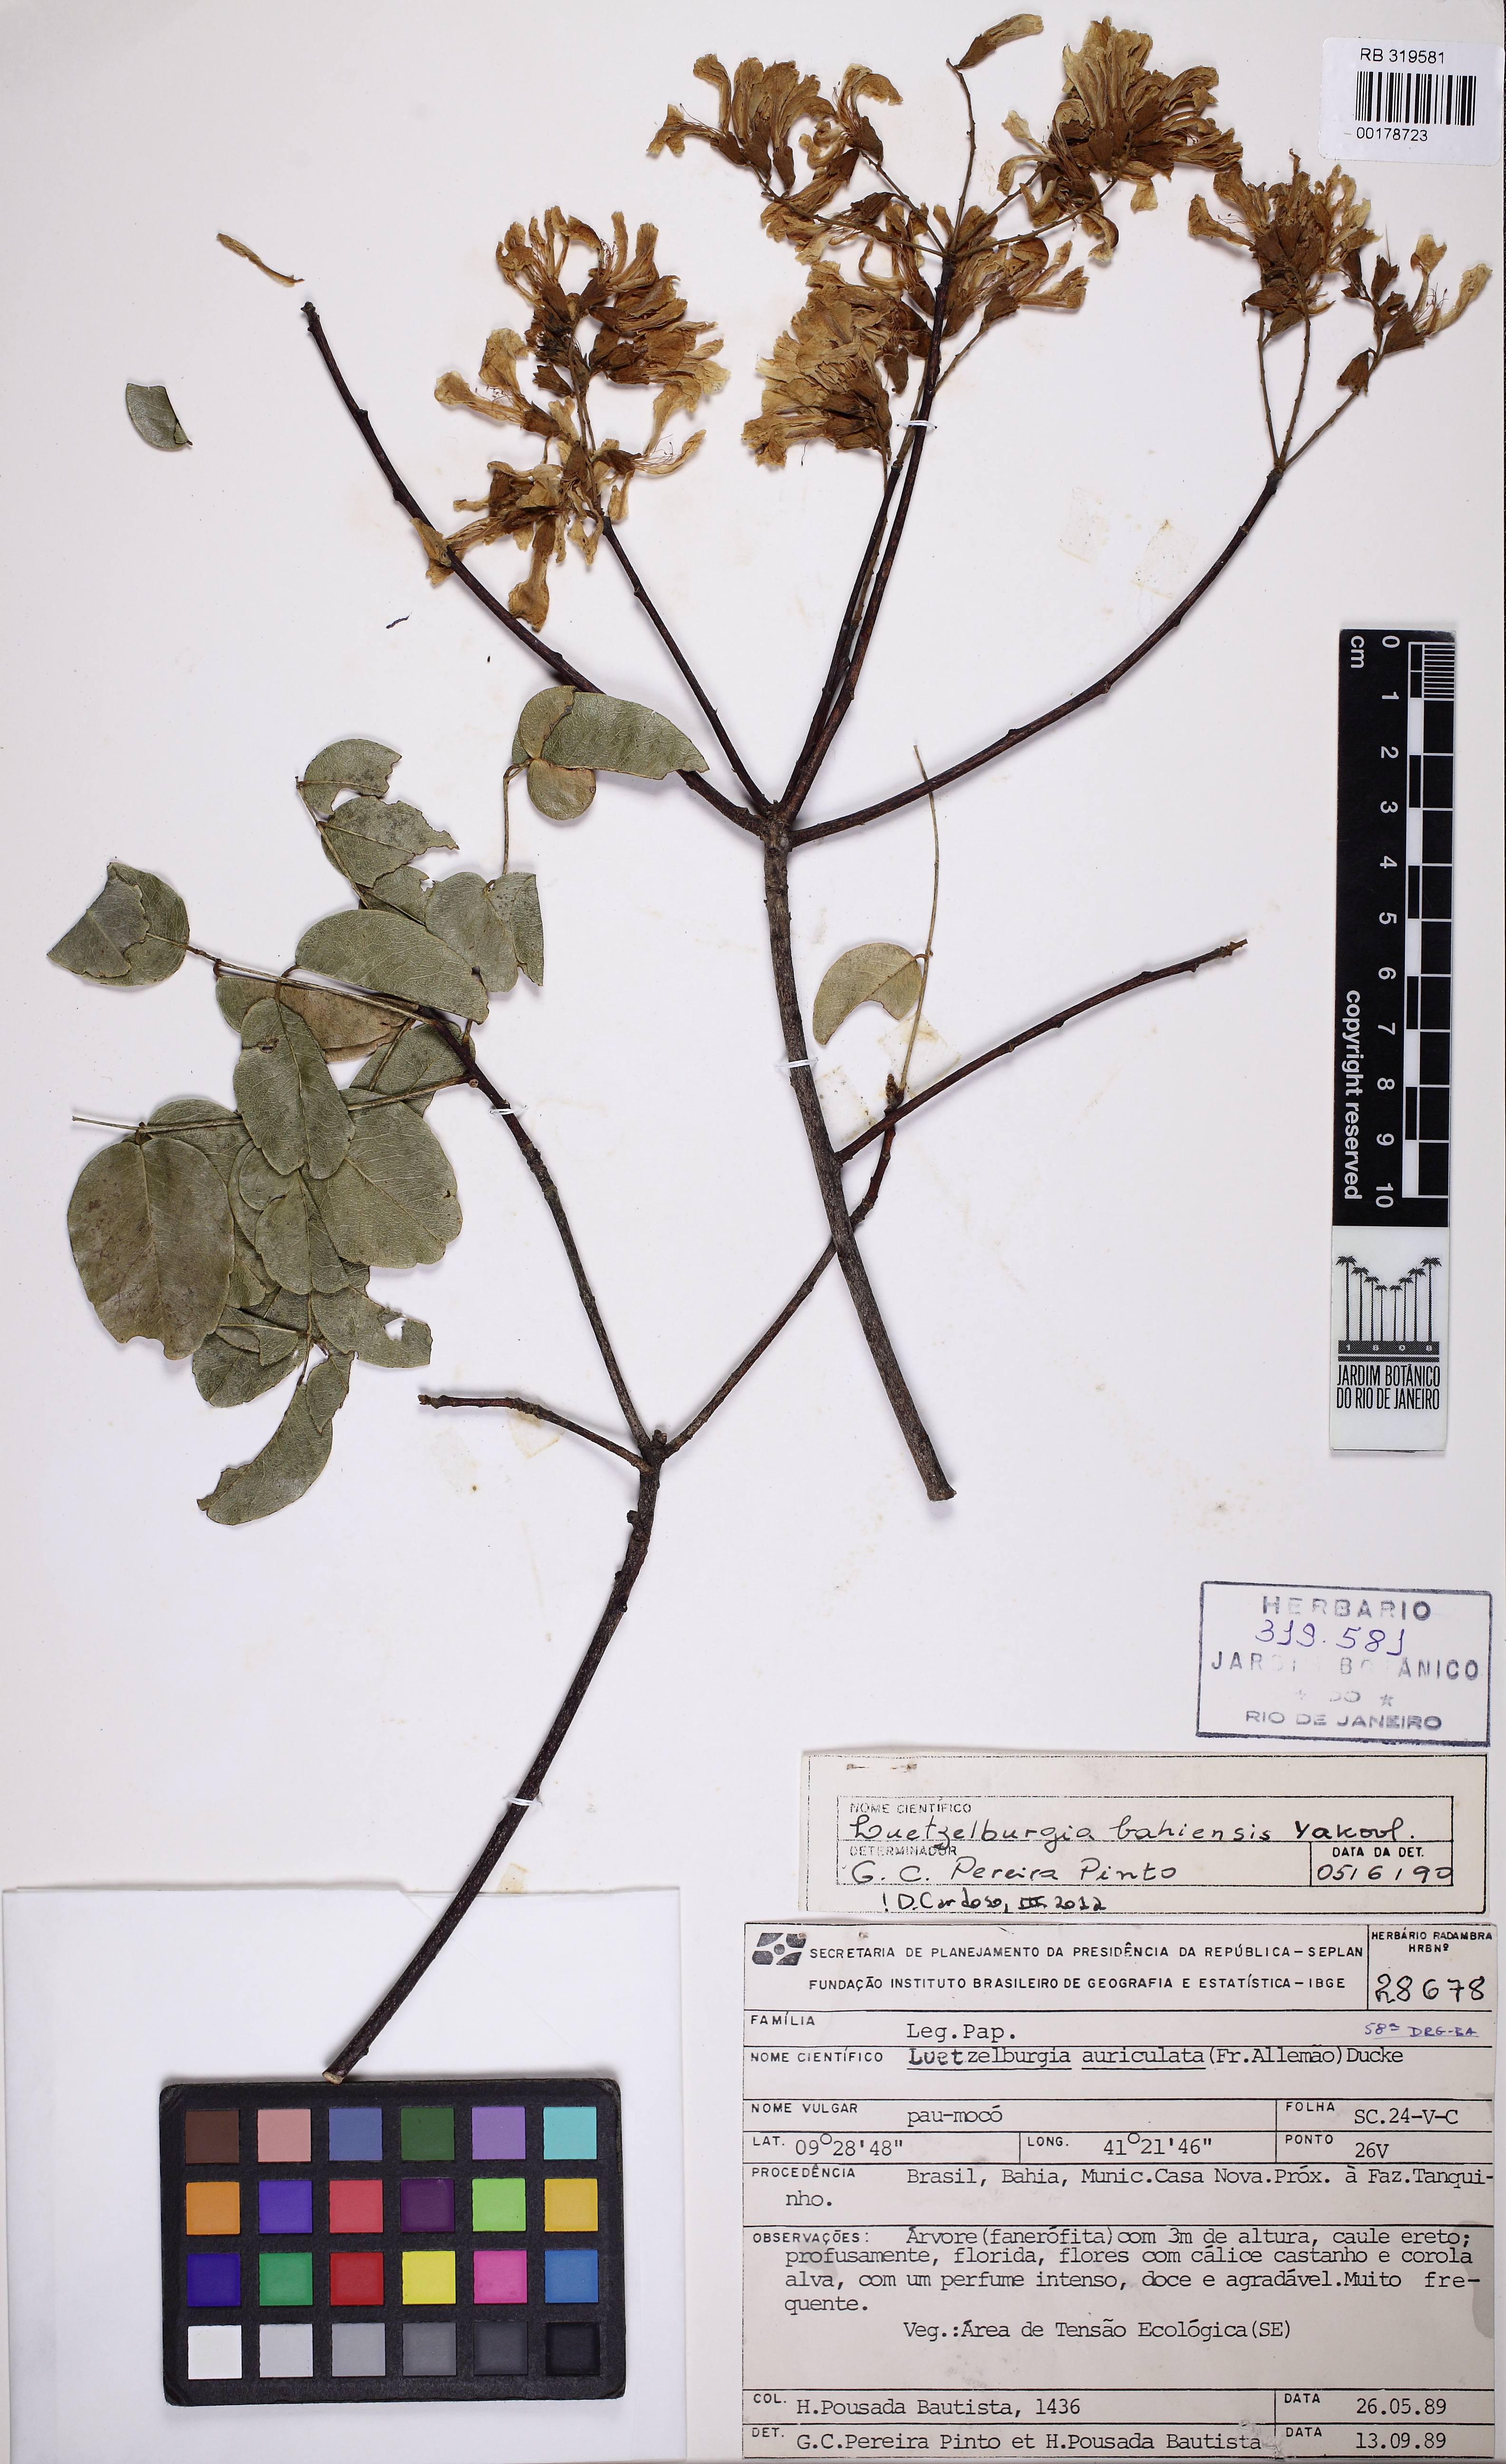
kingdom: Plantae
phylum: Tracheophyta
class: Magnoliopsida
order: Fabales
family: Fabaceae
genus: Luetzelburgia
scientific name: Luetzelburgia bahiensis
